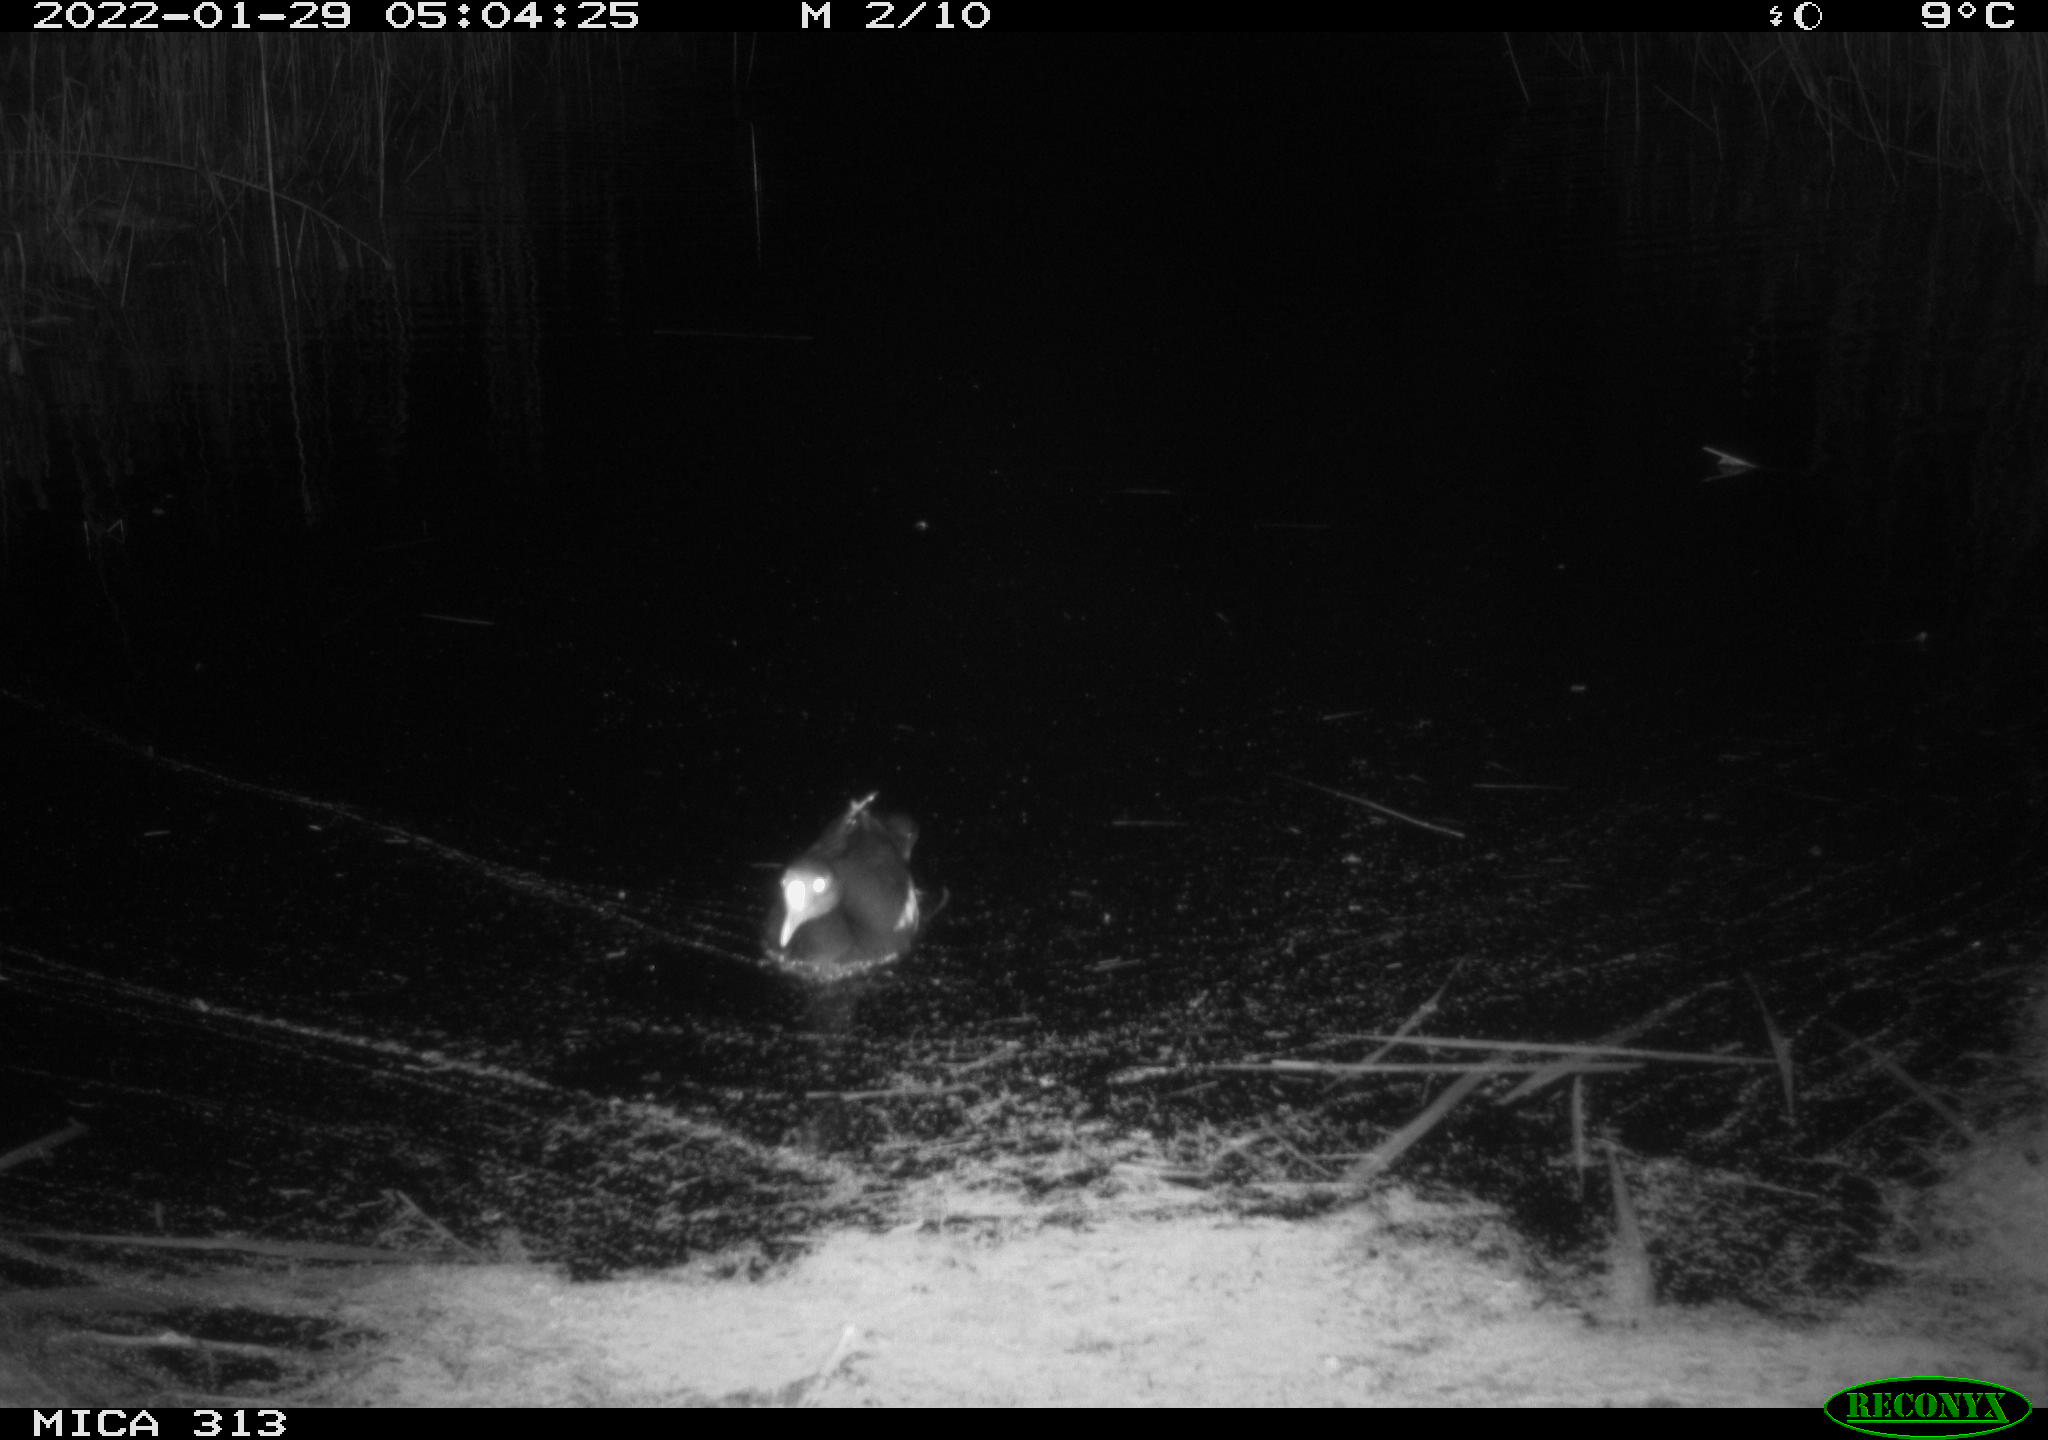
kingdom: Animalia
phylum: Chordata
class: Aves
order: Anseriformes
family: Anatidae
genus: Anas
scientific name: Anas
